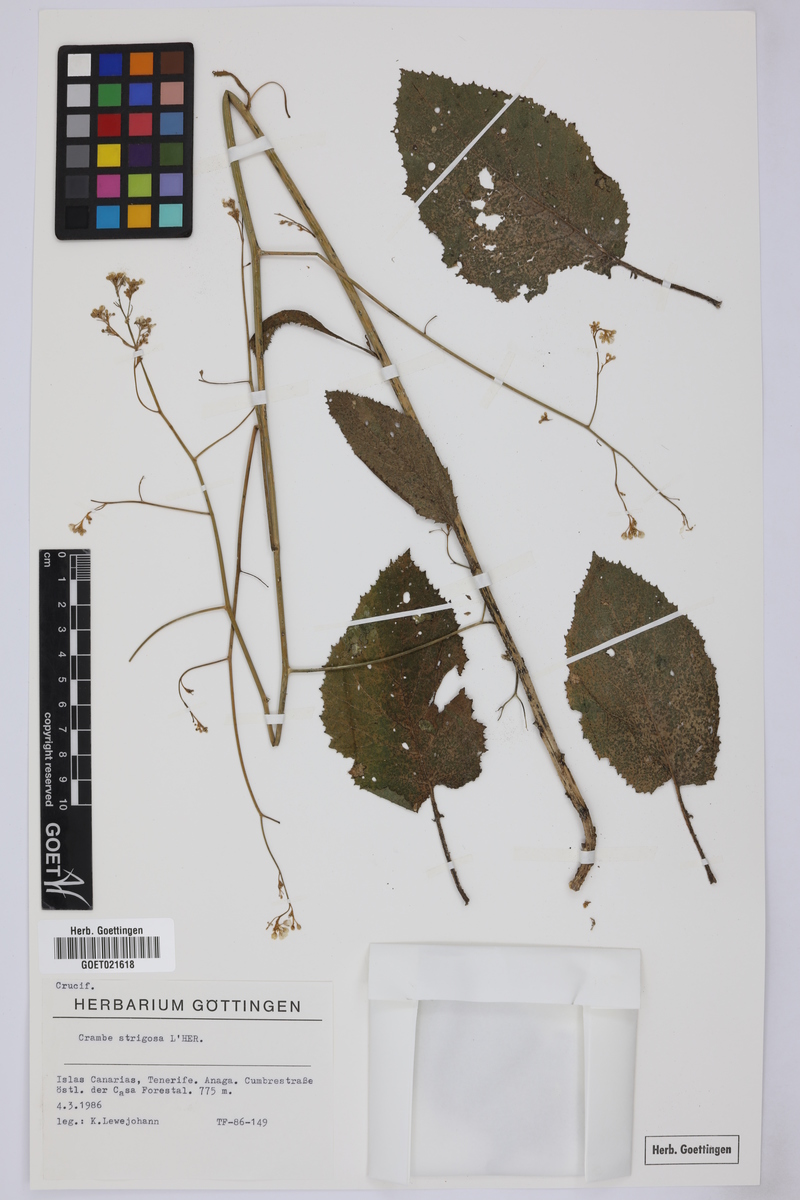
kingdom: Plantae
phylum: Tracheophyta
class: Magnoliopsida
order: Brassicales
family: Brassicaceae
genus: Crambe
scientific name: Crambe strigosa
